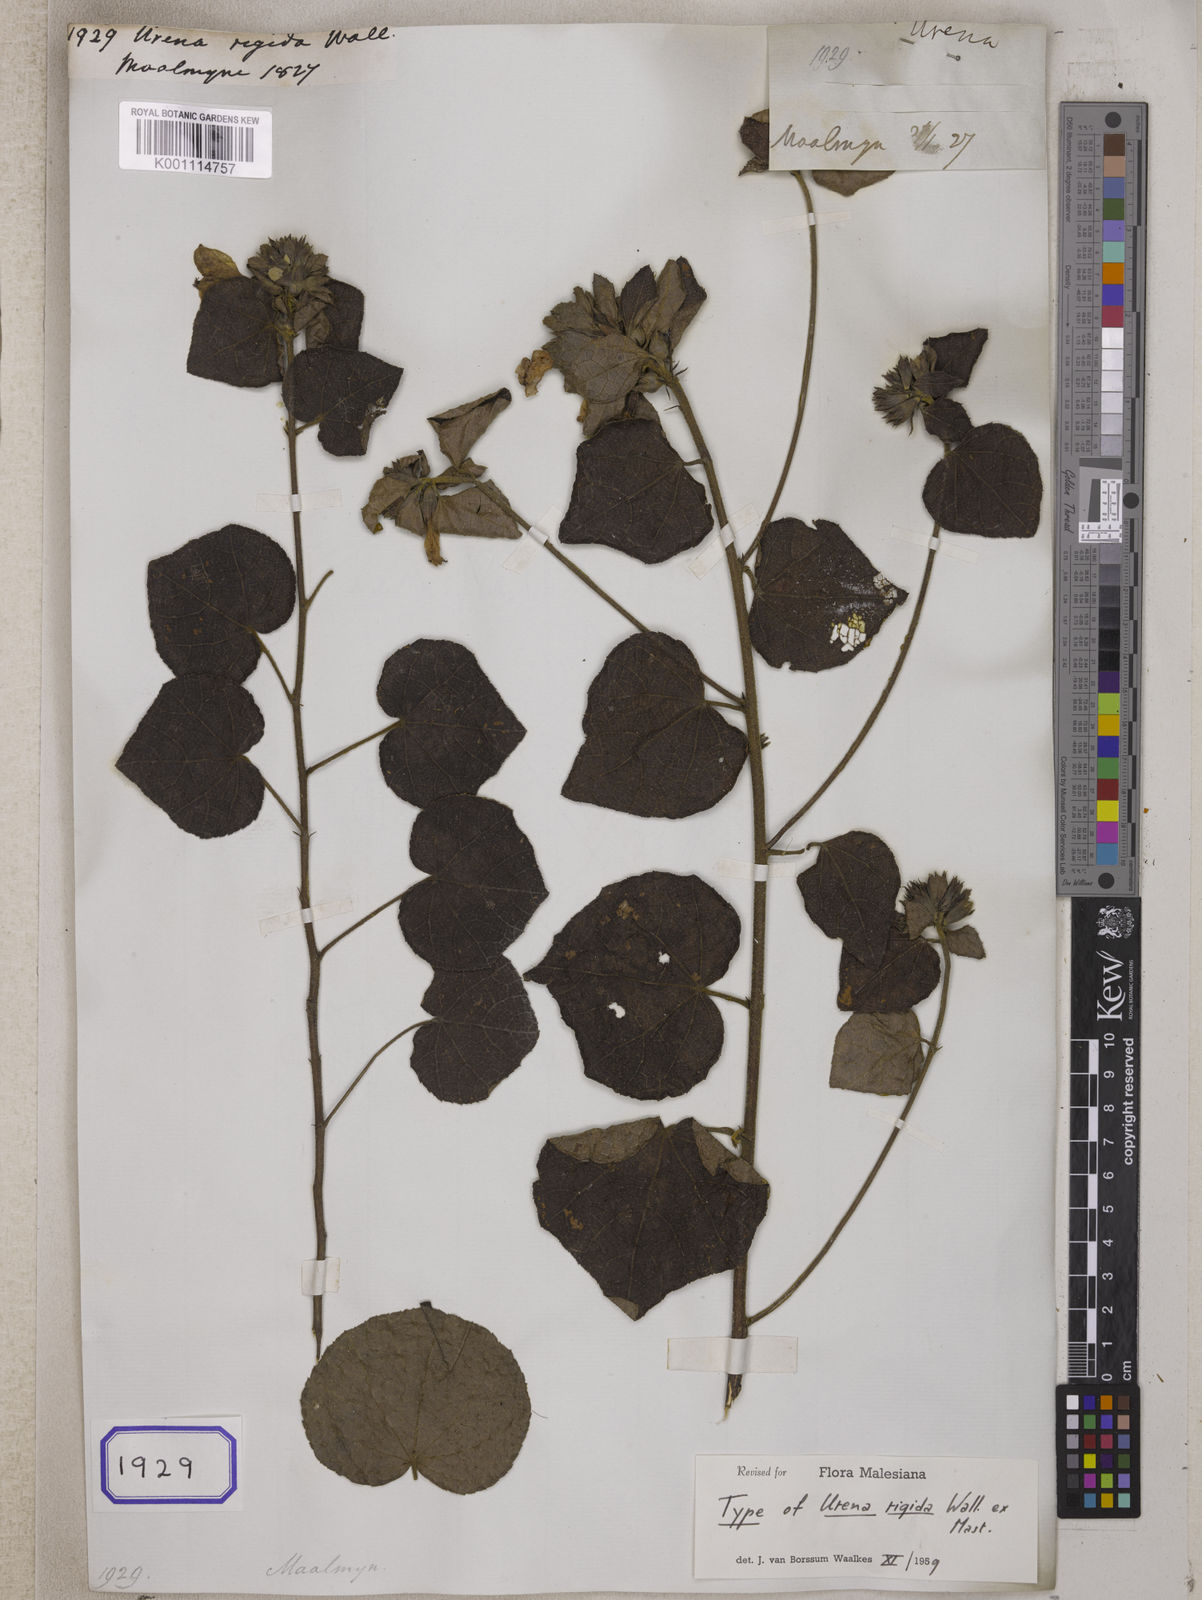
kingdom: Plantae
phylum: Tracheophyta
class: Magnoliopsida
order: Malvales
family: Malvaceae
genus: Urena
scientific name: Urena
